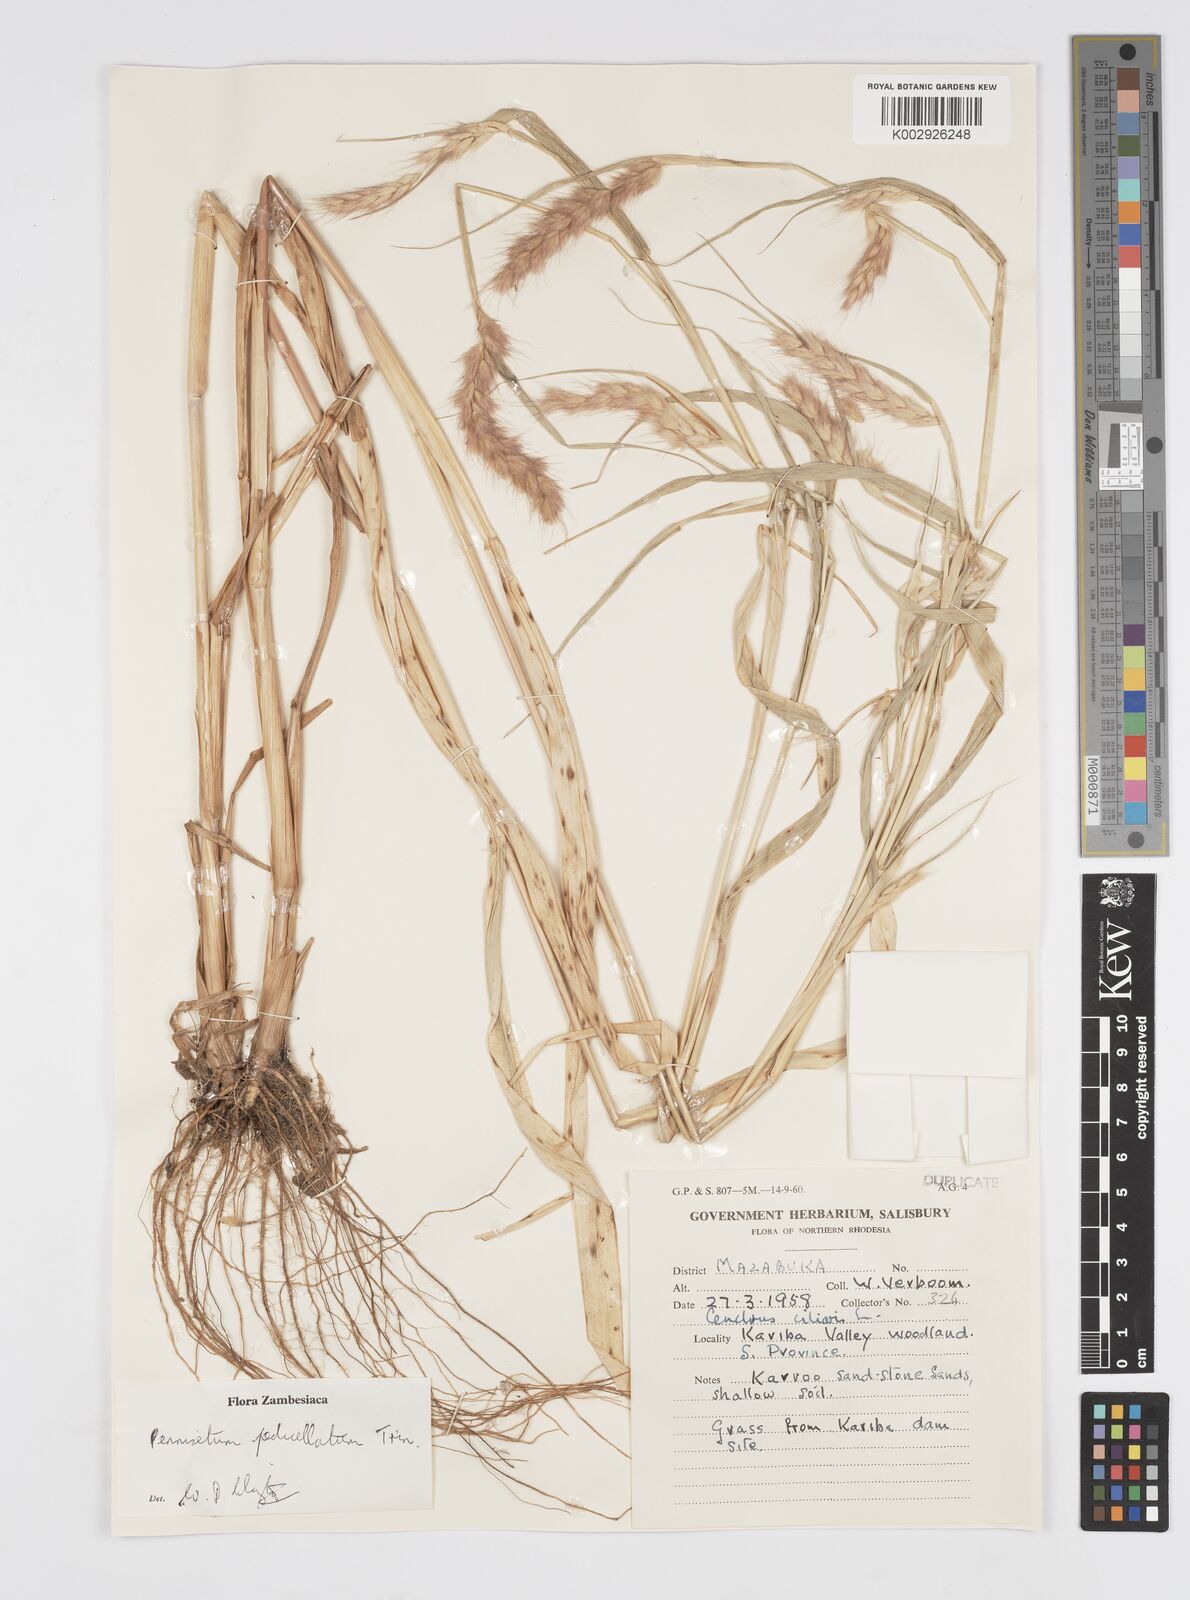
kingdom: Plantae
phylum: Tracheophyta
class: Liliopsida
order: Poales
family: Poaceae
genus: Cenchrus
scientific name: Cenchrus pedicellatus
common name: Hairy fountain grass
